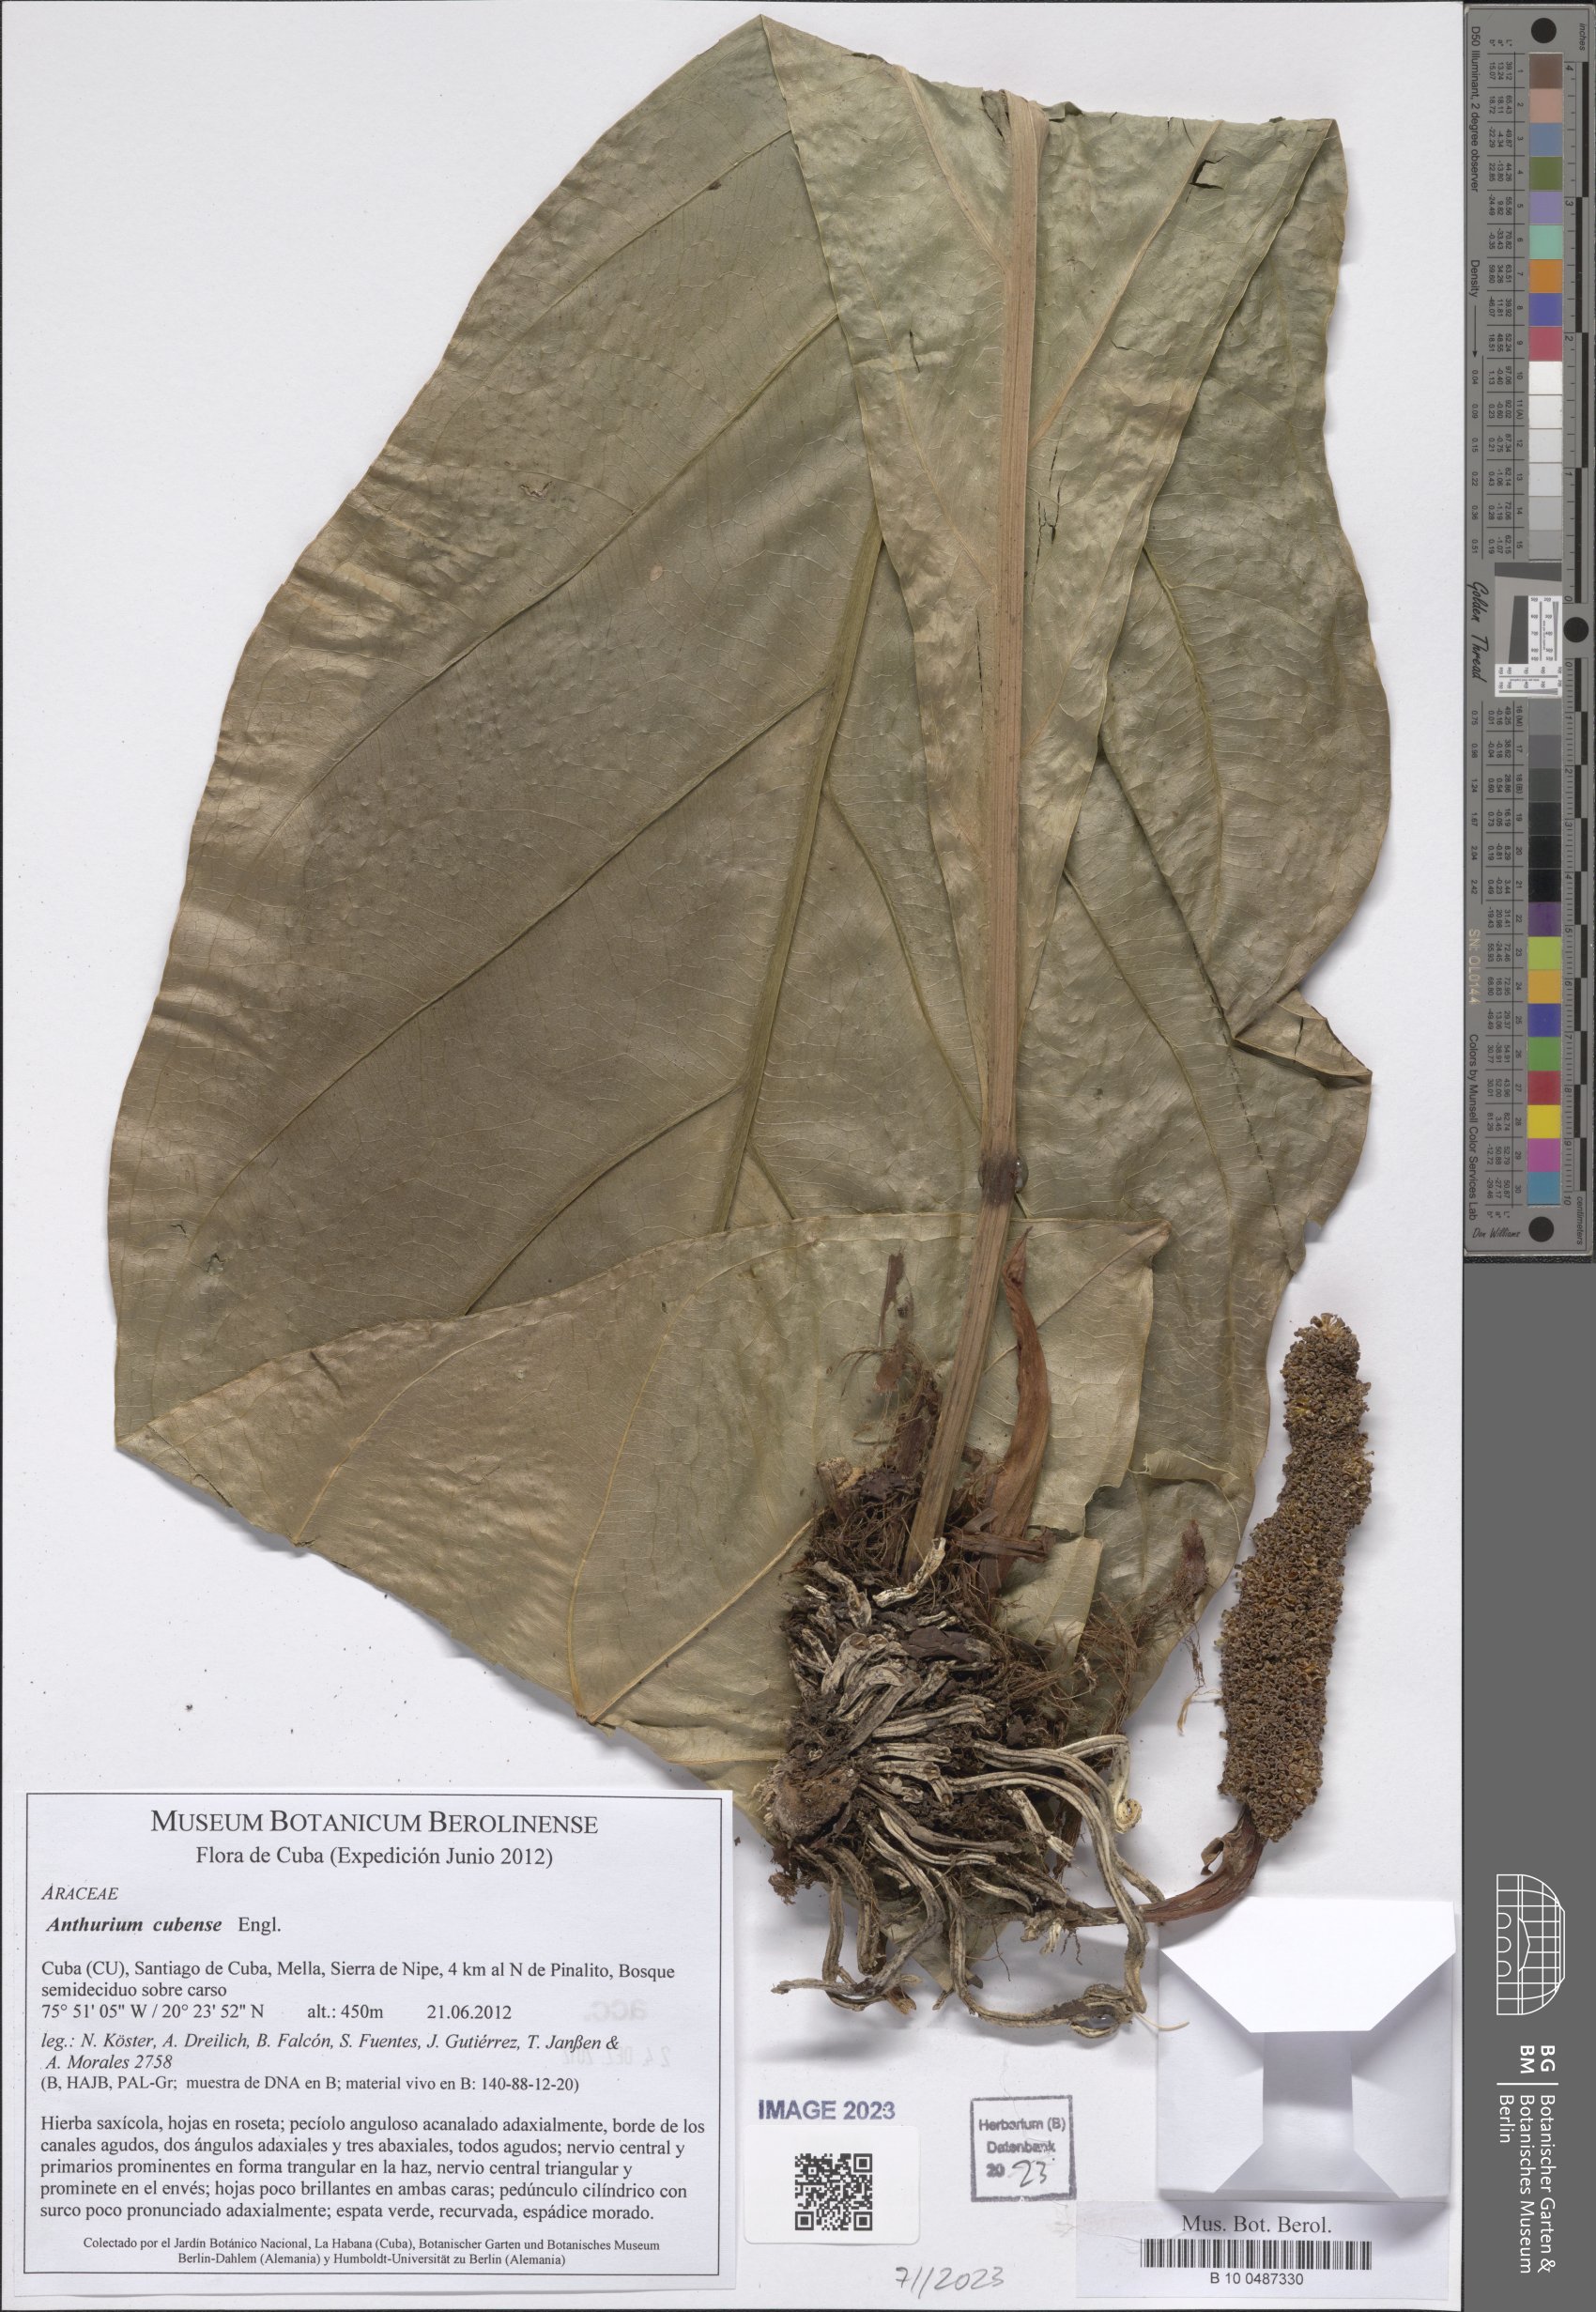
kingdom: Plantae
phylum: Tracheophyta
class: Liliopsida
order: Alismatales
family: Araceae
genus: Anthurium
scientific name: Anthurium cubense
